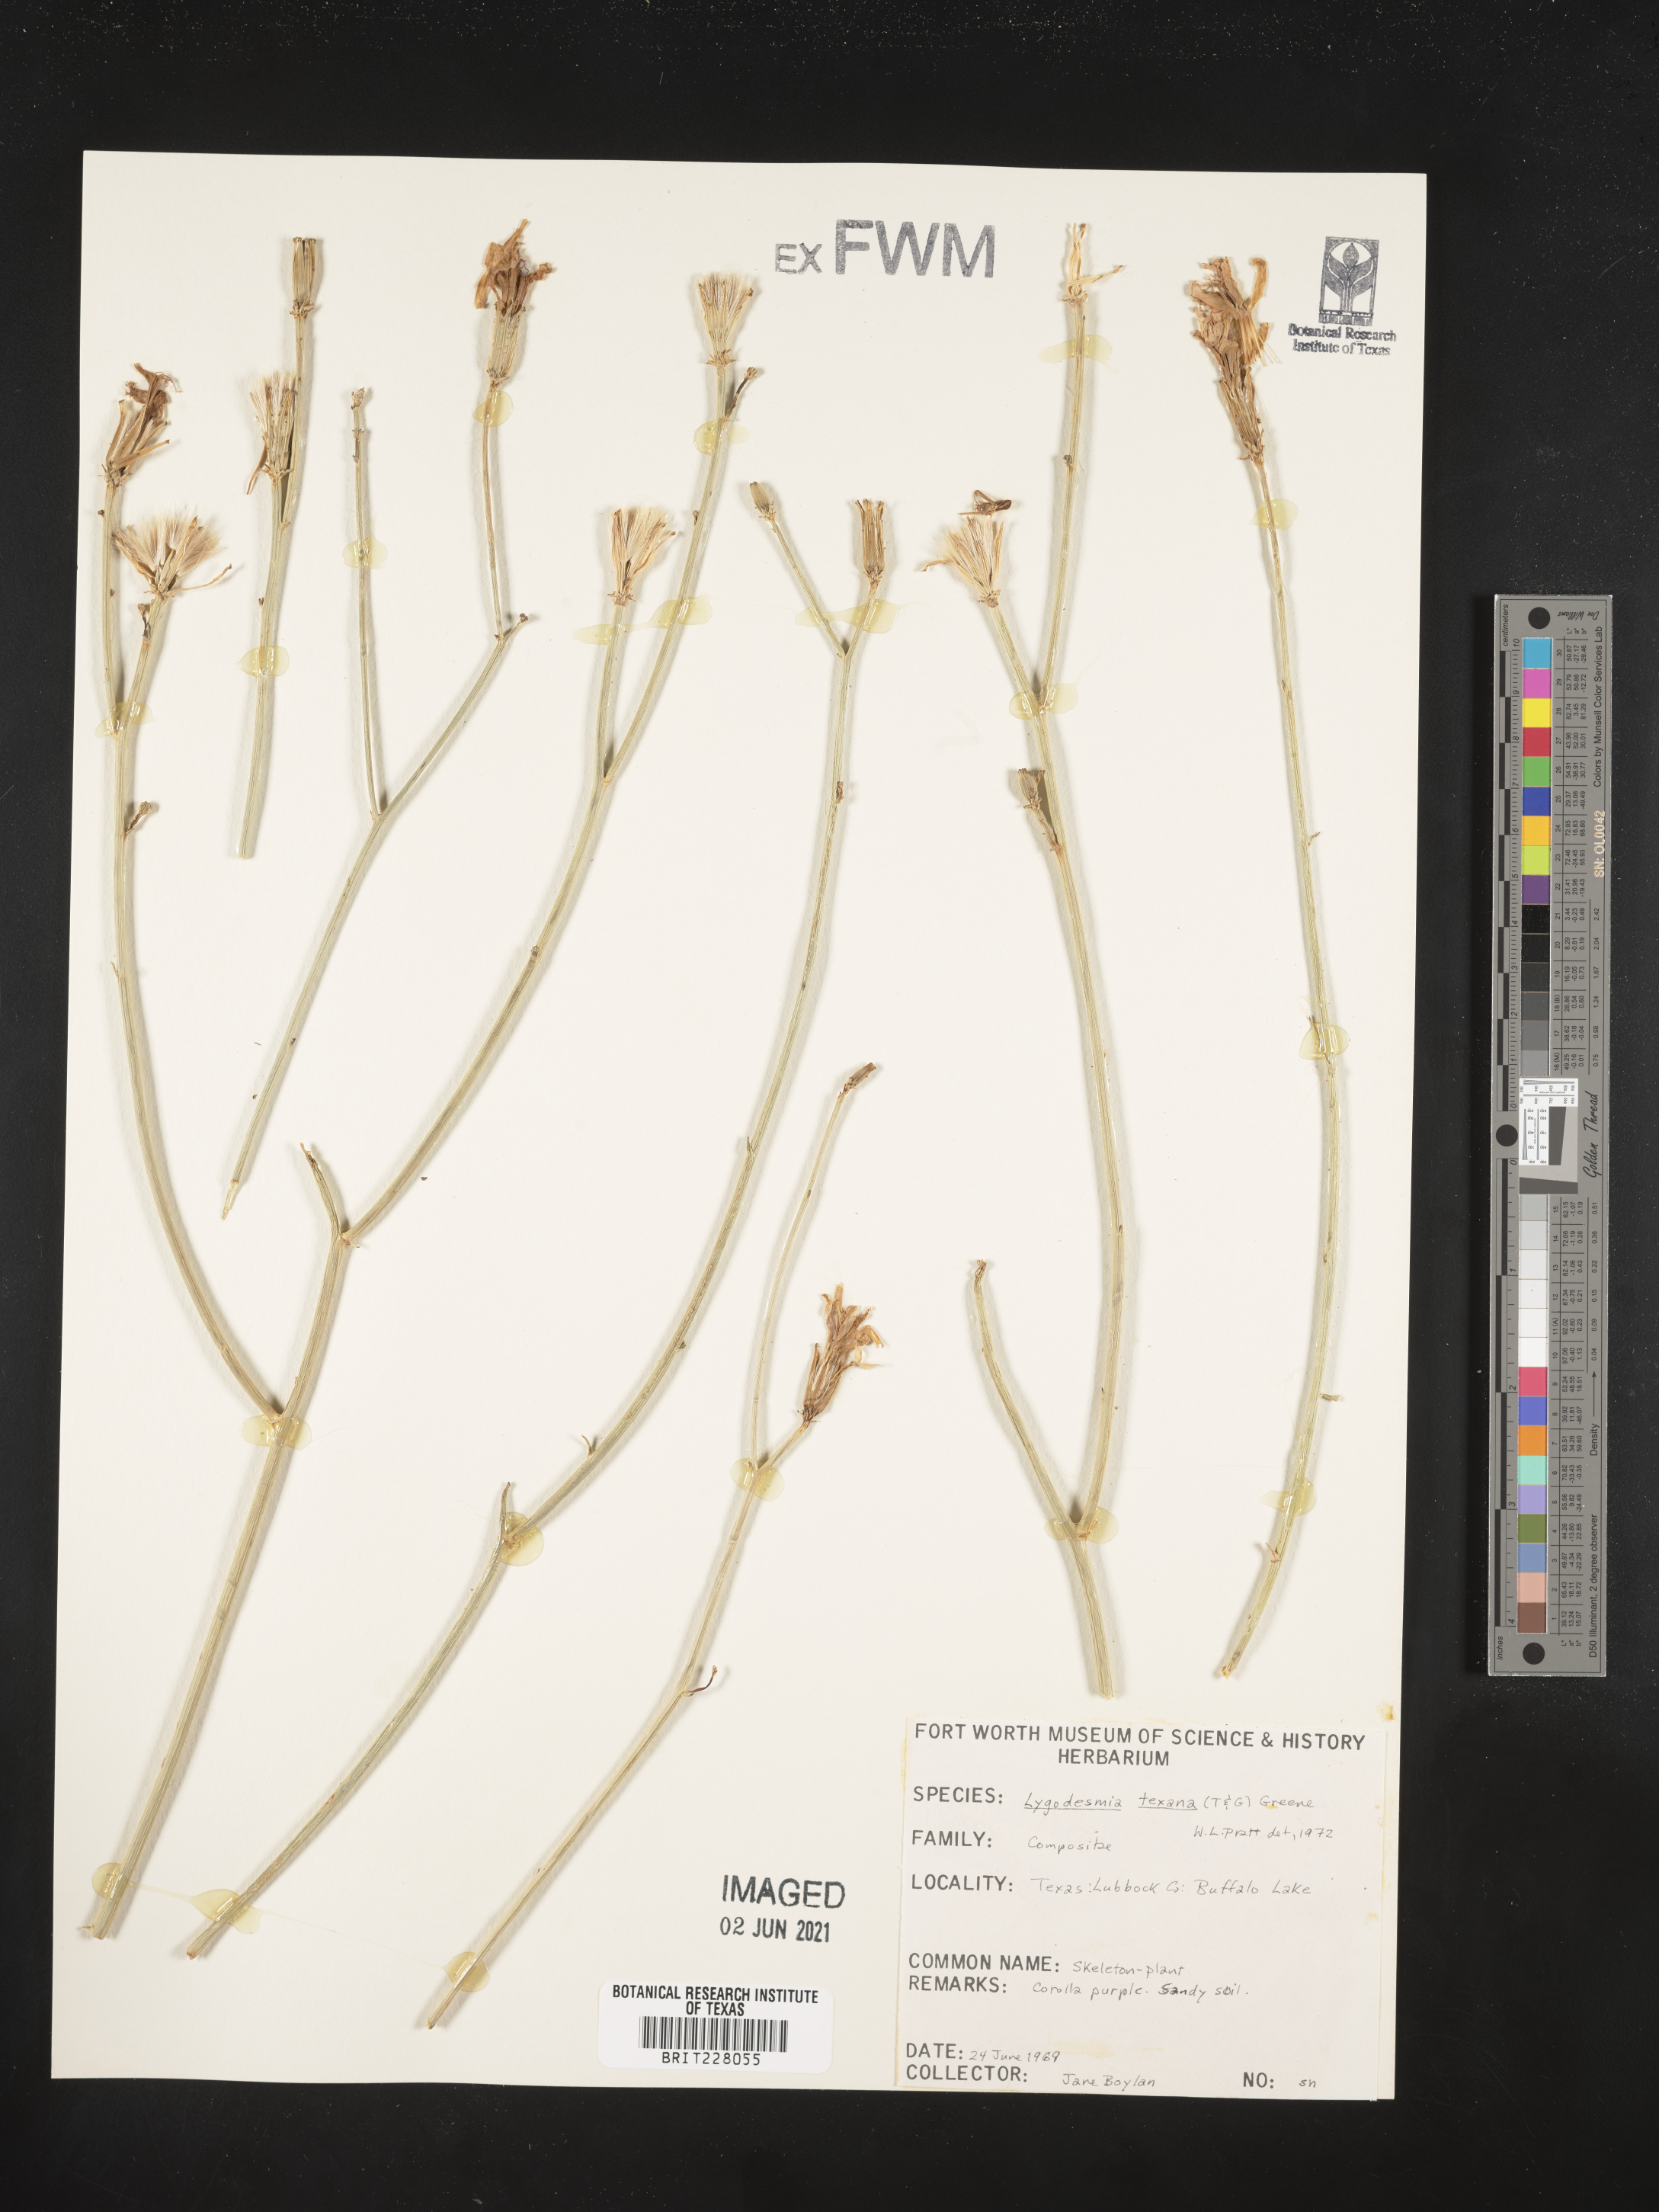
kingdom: Plantae
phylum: Tracheophyta
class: Magnoliopsida
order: Asterales
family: Asteraceae
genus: Lygodesmia
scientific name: Lygodesmia texana
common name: Texas skeleton-plant
